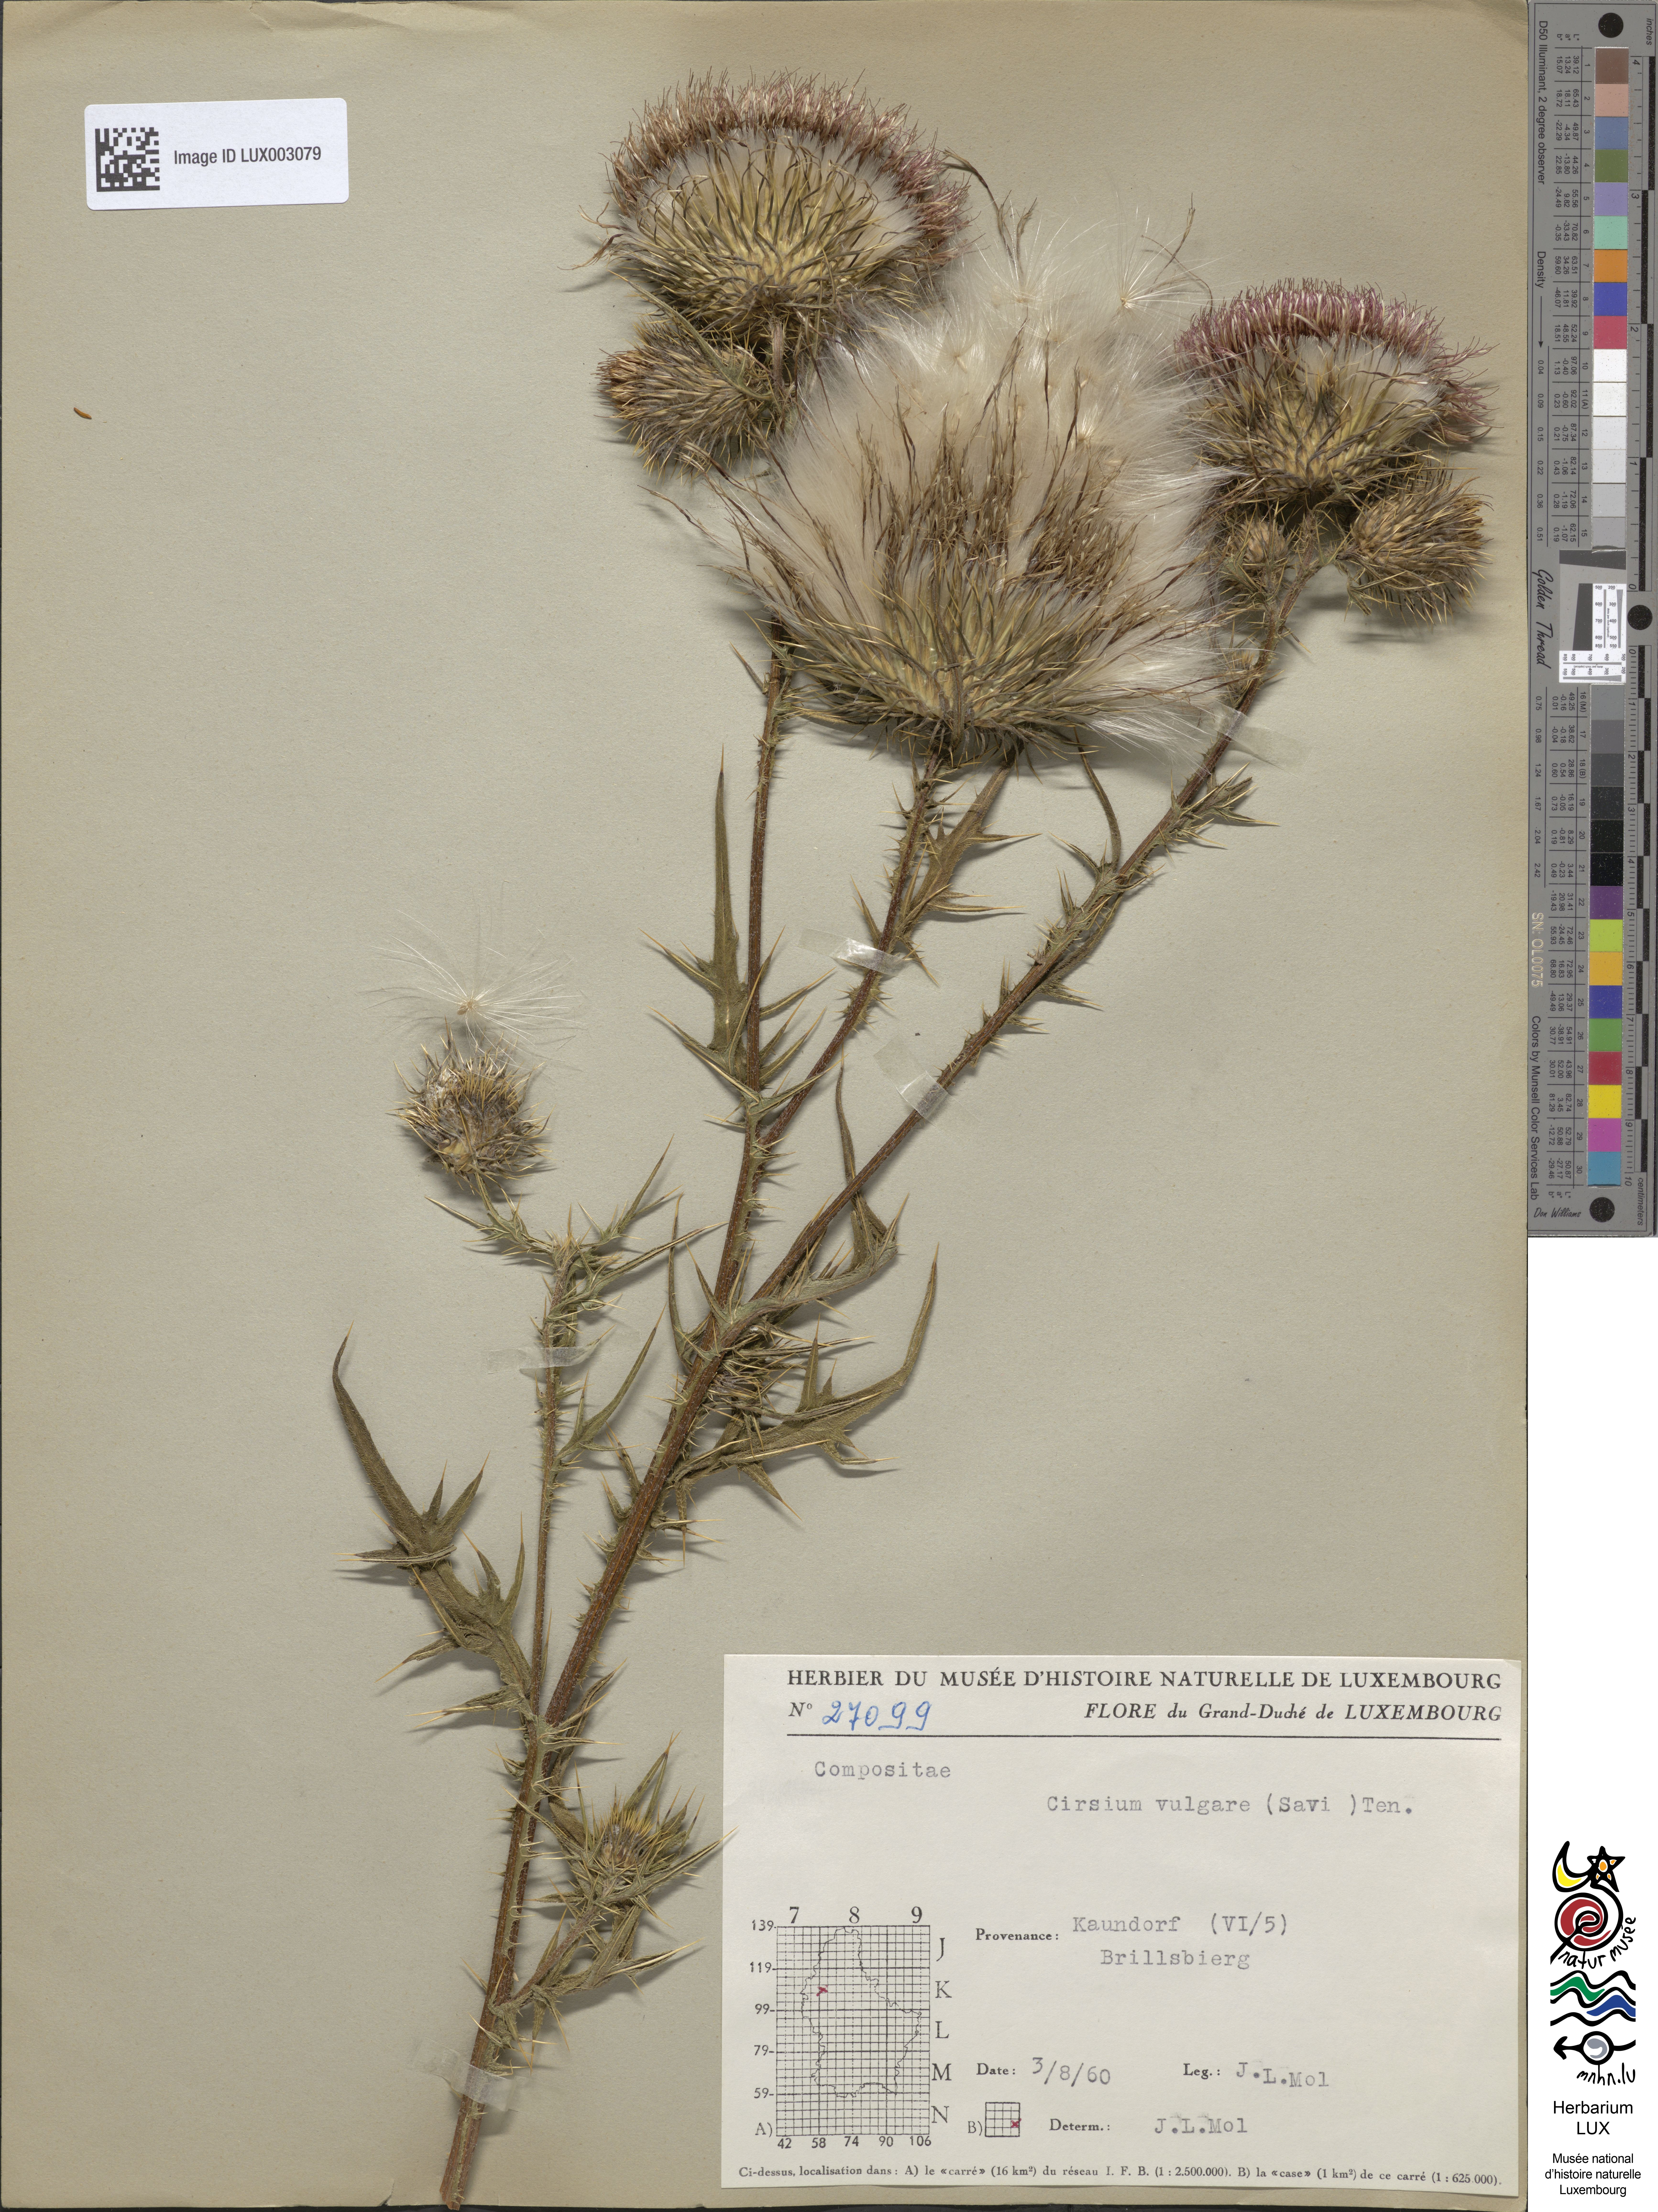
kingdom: Plantae
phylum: Tracheophyta
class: Magnoliopsida
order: Asterales
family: Asteraceae
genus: Cirsium
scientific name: Cirsium vulgare
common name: Bull thistle
